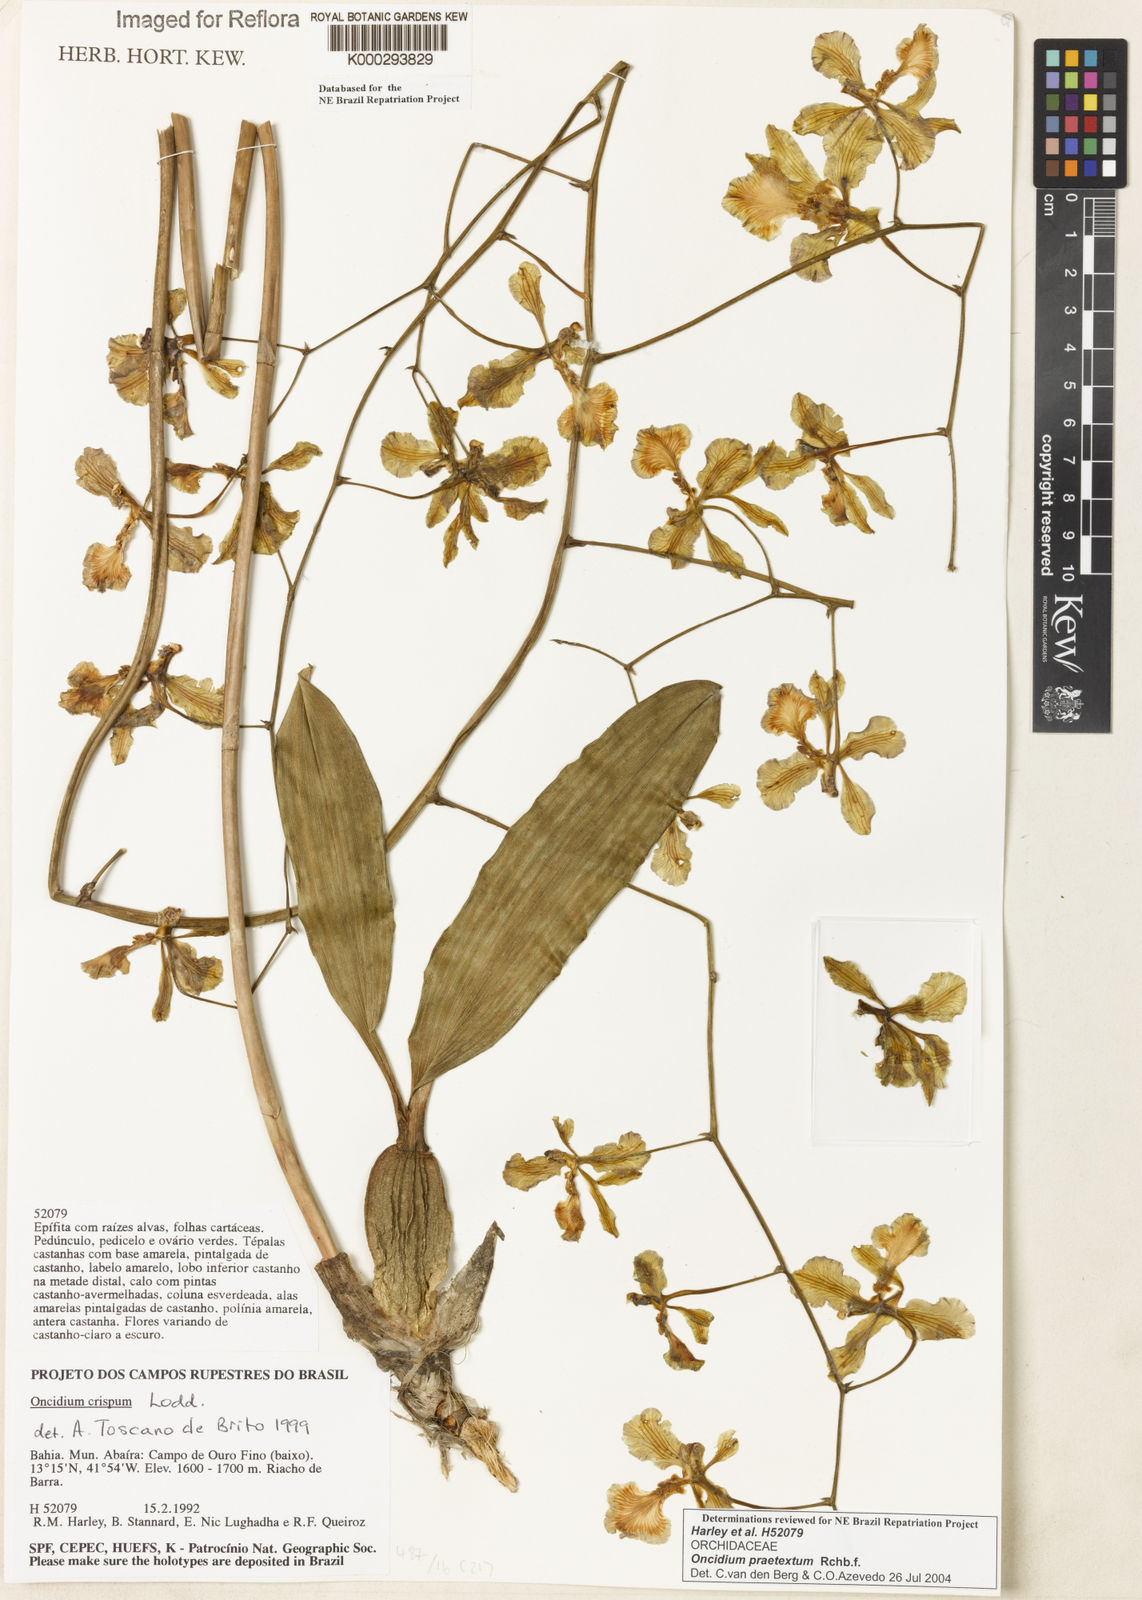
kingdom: Plantae
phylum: Tracheophyta
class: Liliopsida
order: Asparagales
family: Orchidaceae
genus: Gomesa
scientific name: Gomesa praetexta
